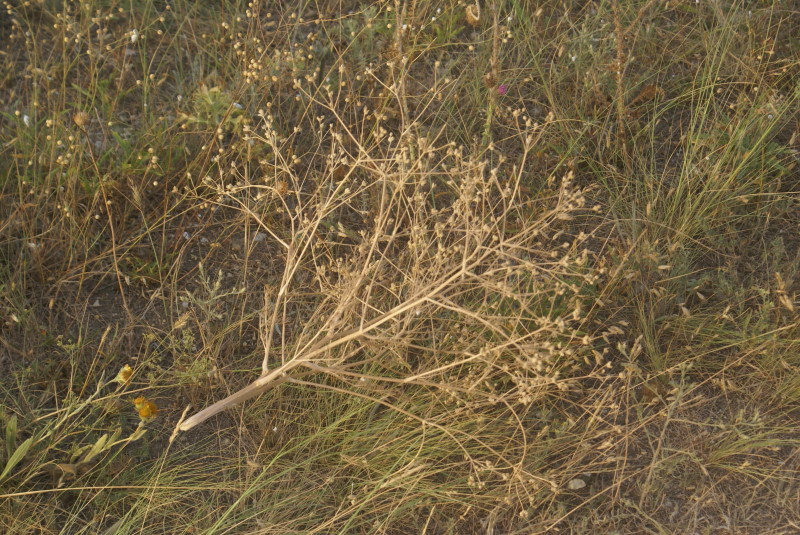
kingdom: Plantae
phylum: Tracheophyta
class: Magnoliopsida
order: Brassicales
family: Brassicaceae
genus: Crambe
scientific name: Crambe maritima
